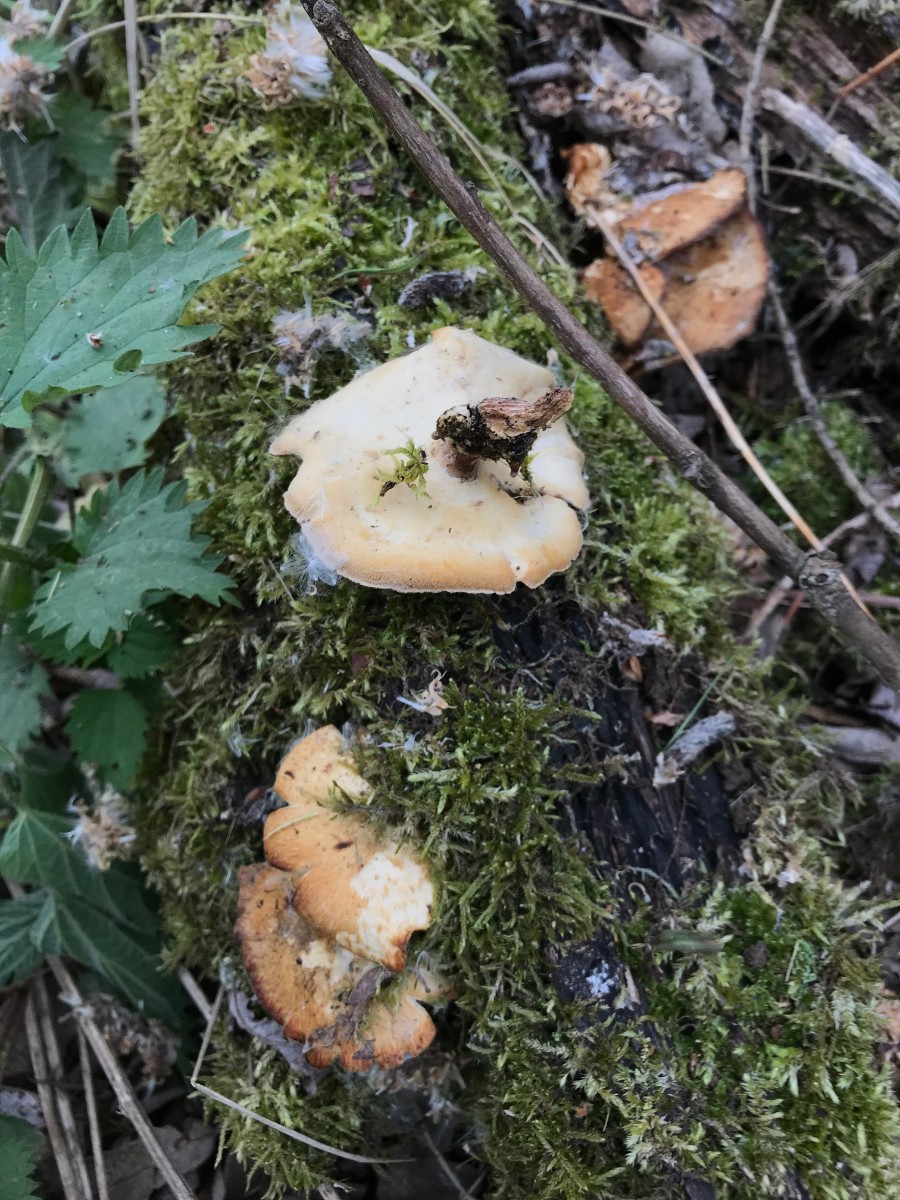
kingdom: Fungi
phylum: Basidiomycota
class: Agaricomycetes
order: Polyporales
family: Polyporaceae
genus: Lentinus
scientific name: Lentinus substrictus
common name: forårs-stilkporesvamp
